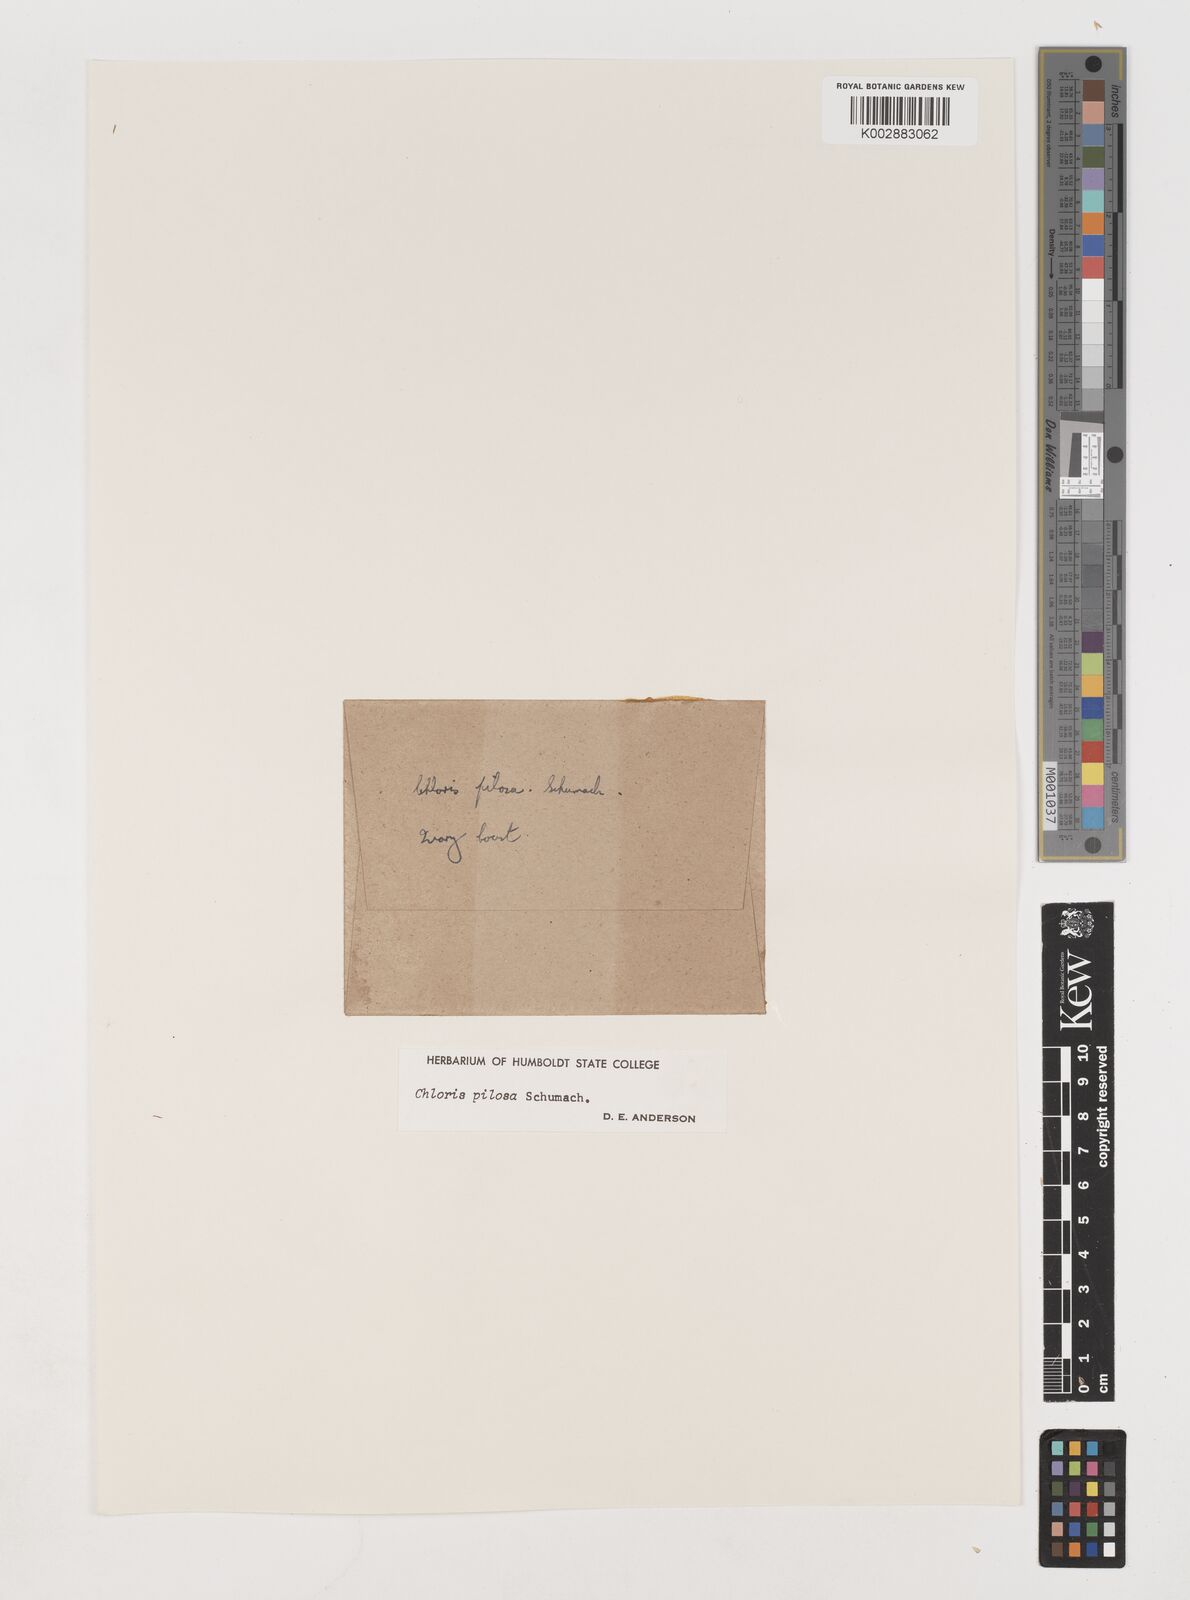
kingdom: Plantae
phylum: Tracheophyta
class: Liliopsida
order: Poales
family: Poaceae
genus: Chloris
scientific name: Chloris pilosa
